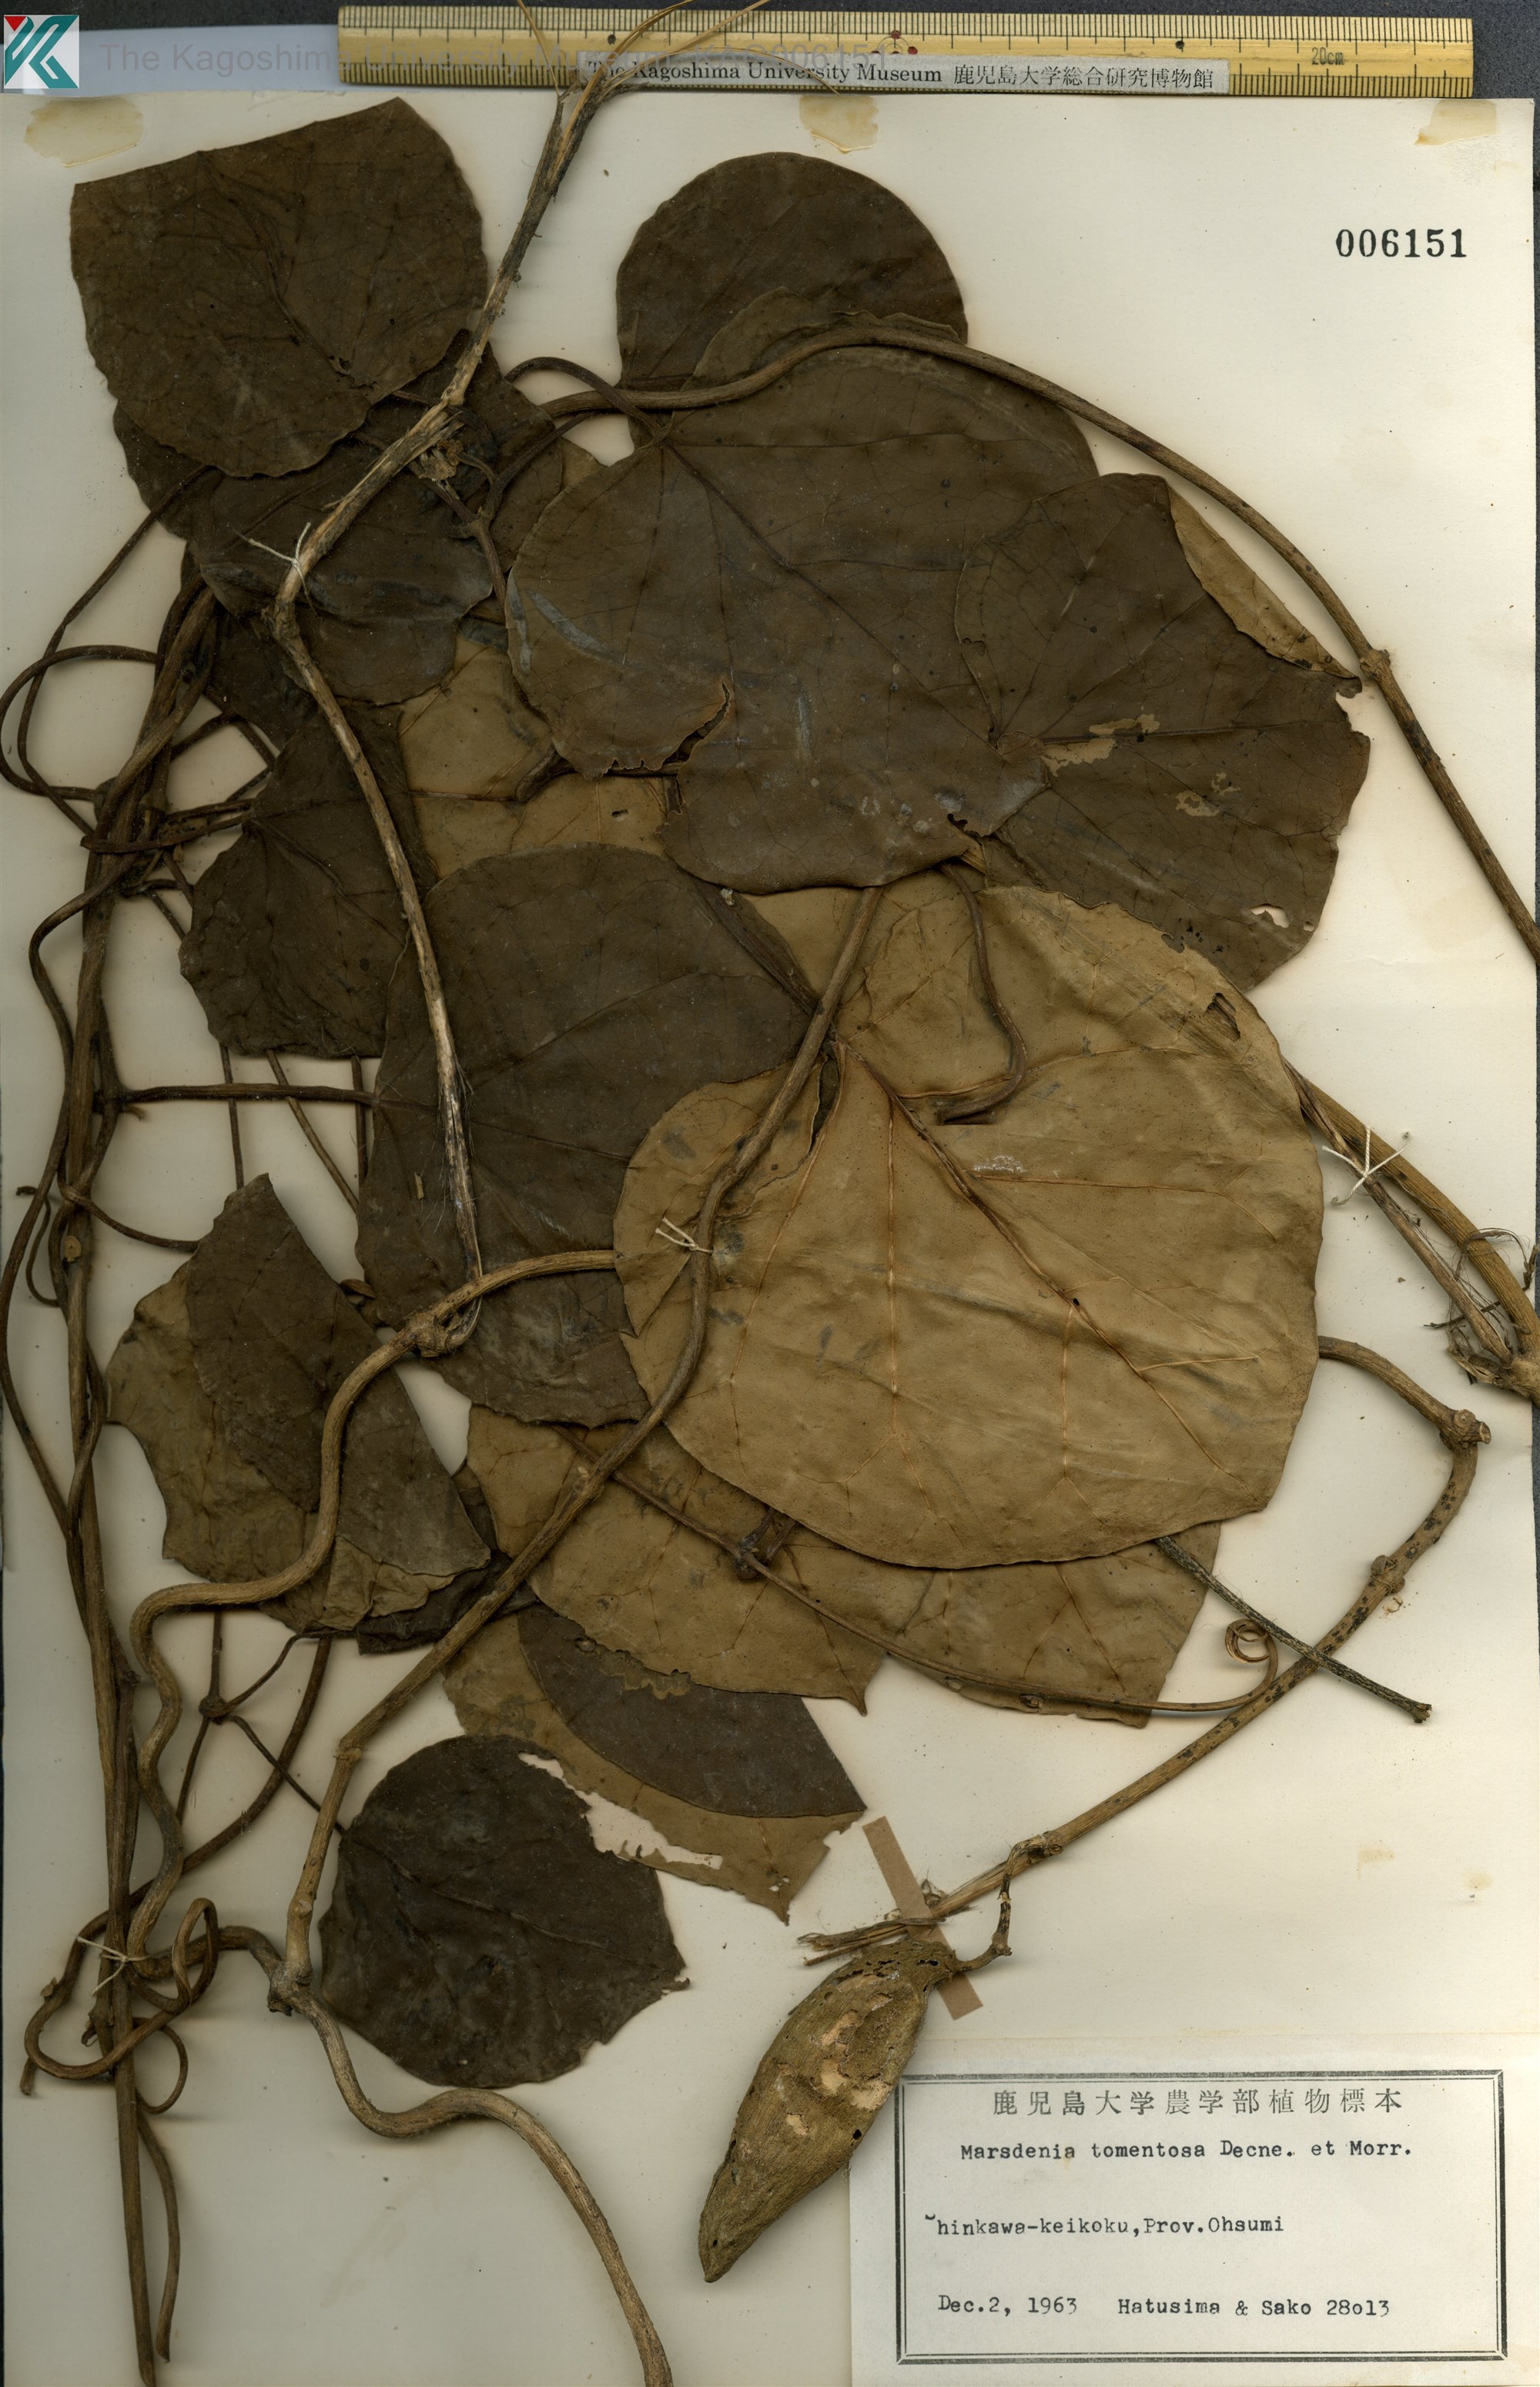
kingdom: Plantae
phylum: Tracheophyta
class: Magnoliopsida
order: Gentianales
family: Apocynaceae
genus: Sinomarsdenia
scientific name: Sinomarsdenia tomentosa
